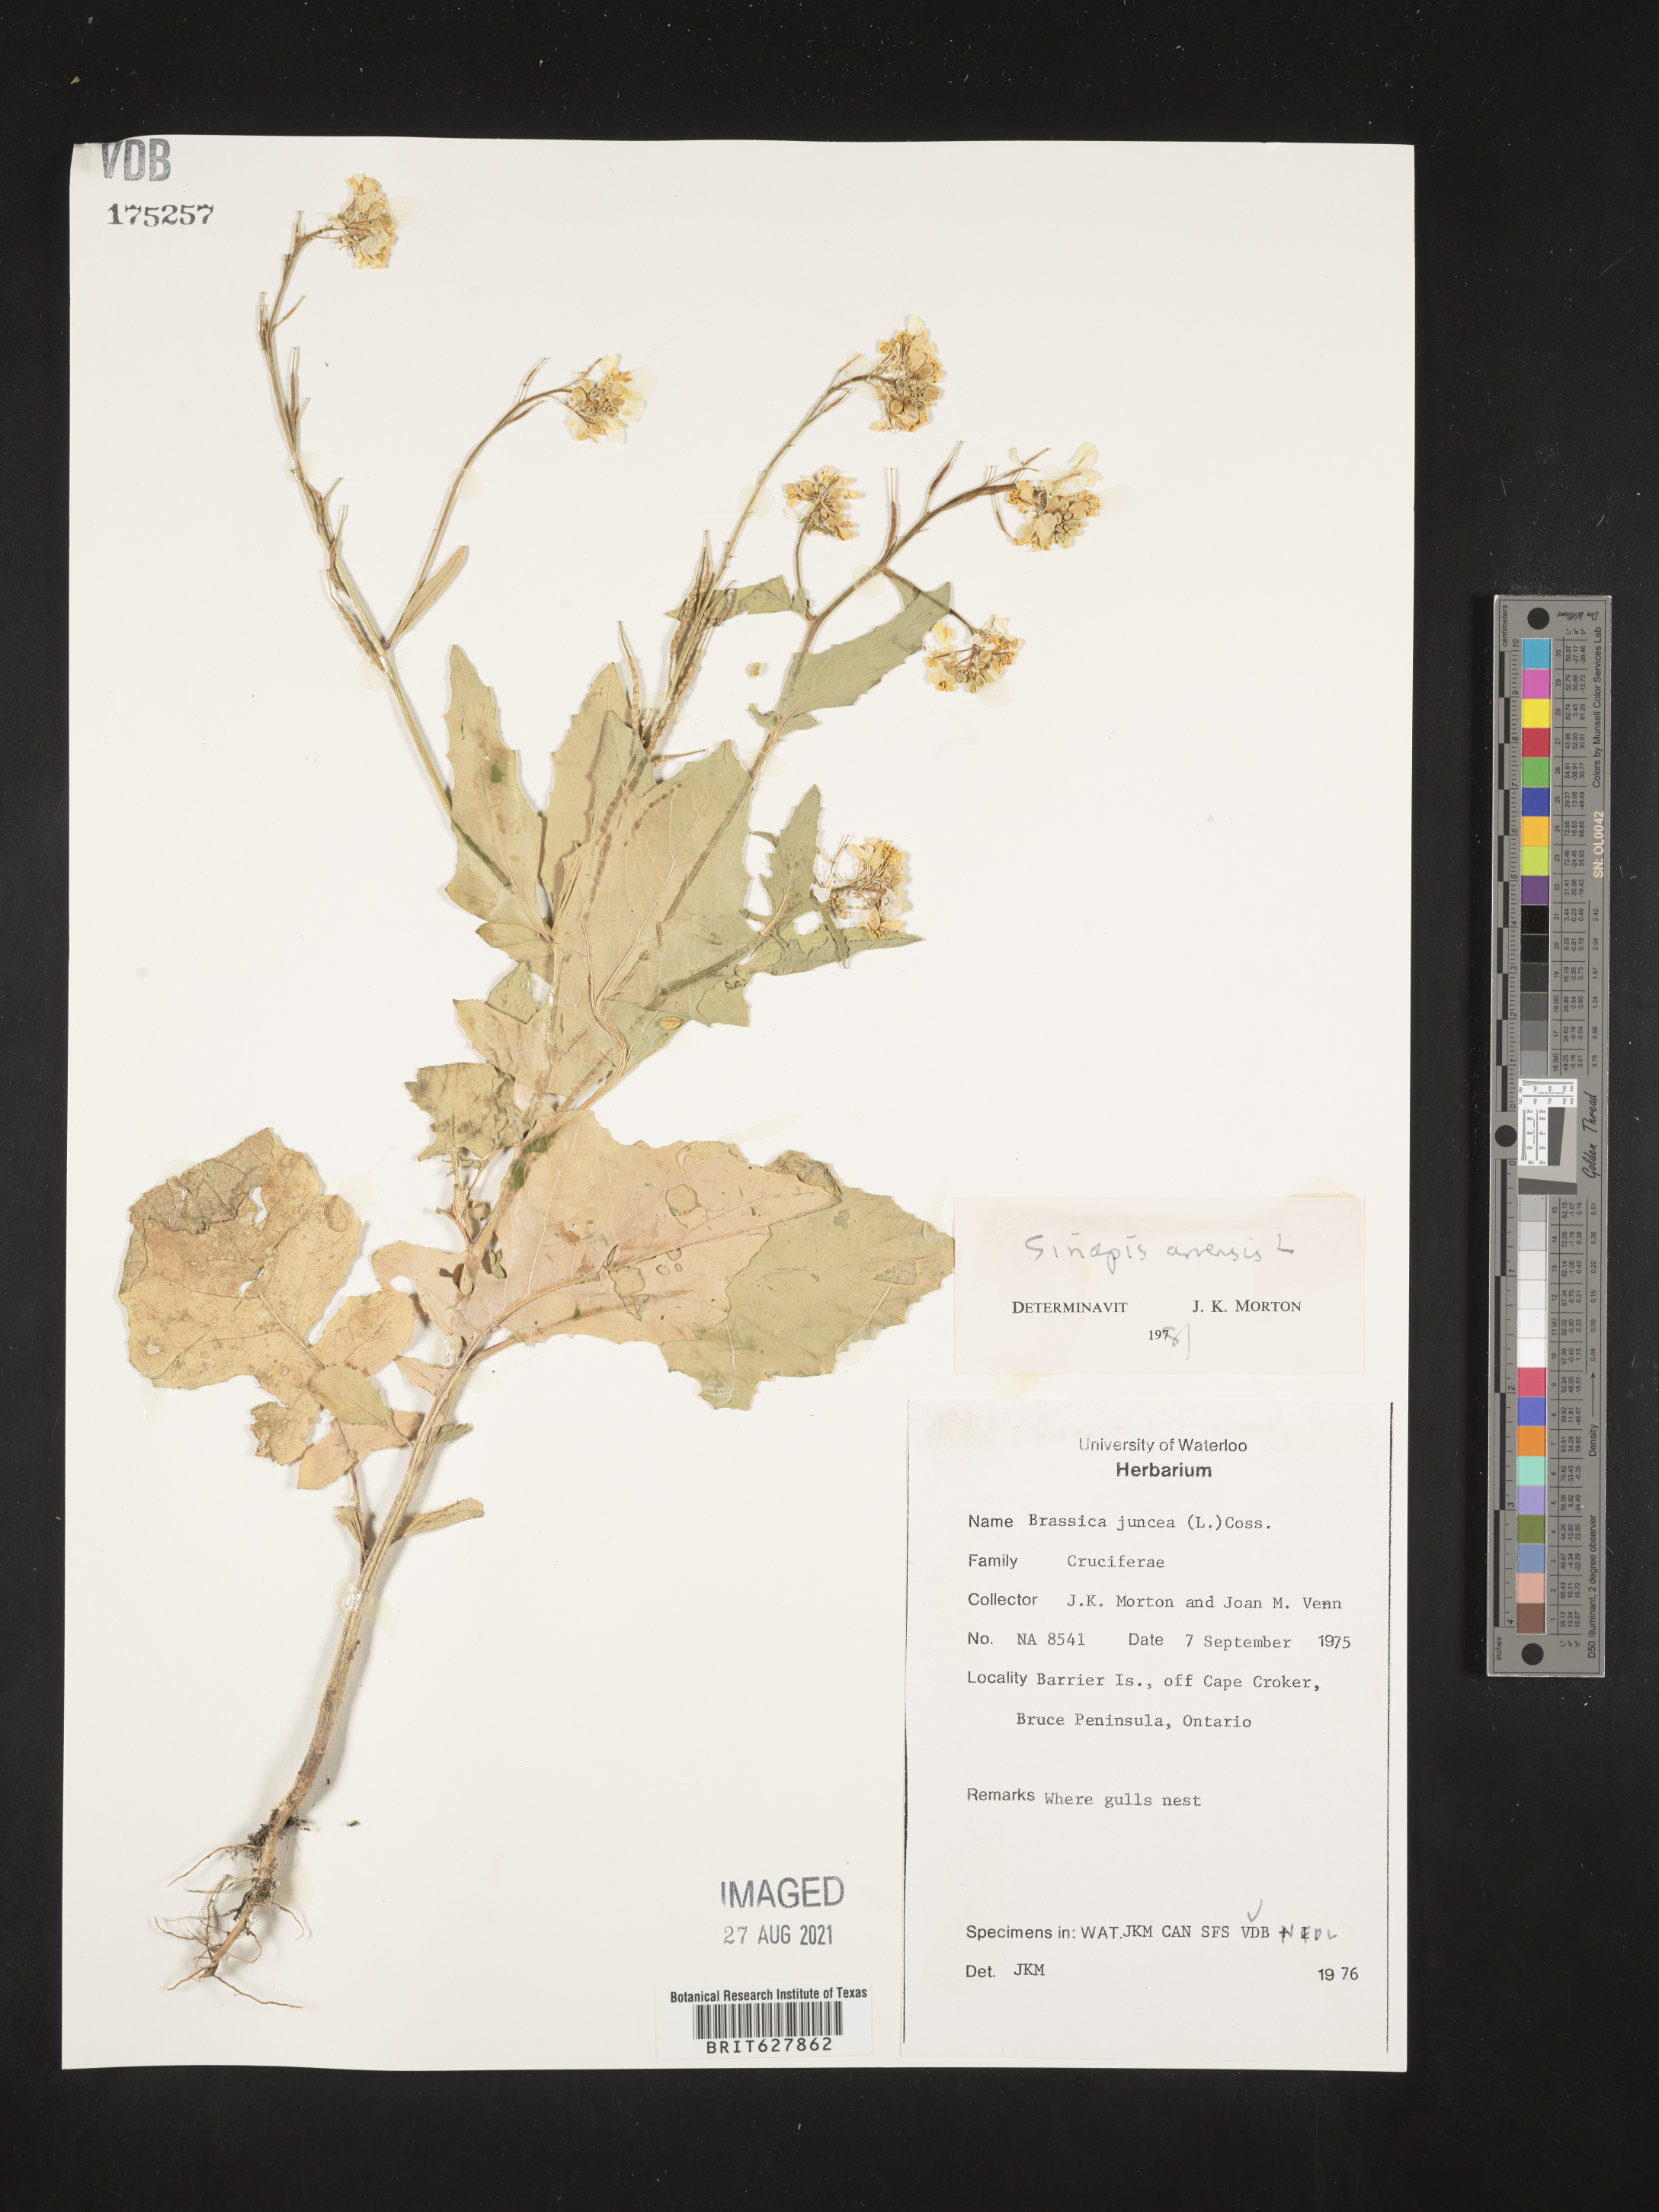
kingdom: Plantae
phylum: Tracheophyta
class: Magnoliopsida
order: Brassicales
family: Brassicaceae
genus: Sinapis
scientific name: Sinapis arvensis
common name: Charlock
